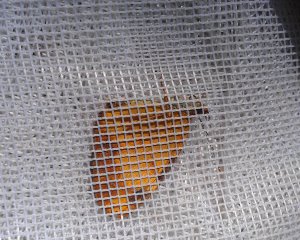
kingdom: Animalia
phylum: Arthropoda
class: Insecta
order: Lepidoptera
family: Nymphalidae
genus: Phyciodes
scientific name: Phyciodes tharos
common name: Northern Crescent
